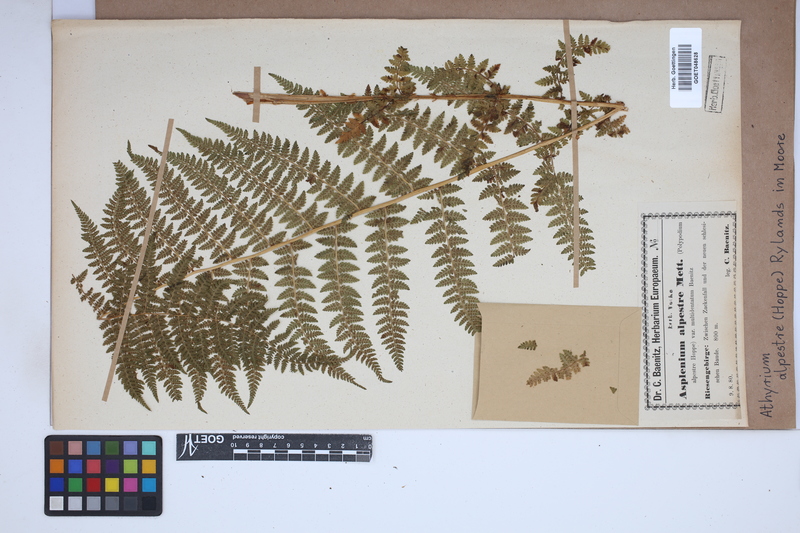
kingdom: Plantae
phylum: Tracheophyta
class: Polypodiopsida
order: Polypodiales
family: Athyriaceae
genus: Pseudathyrium
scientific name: Pseudathyrium alpestre
